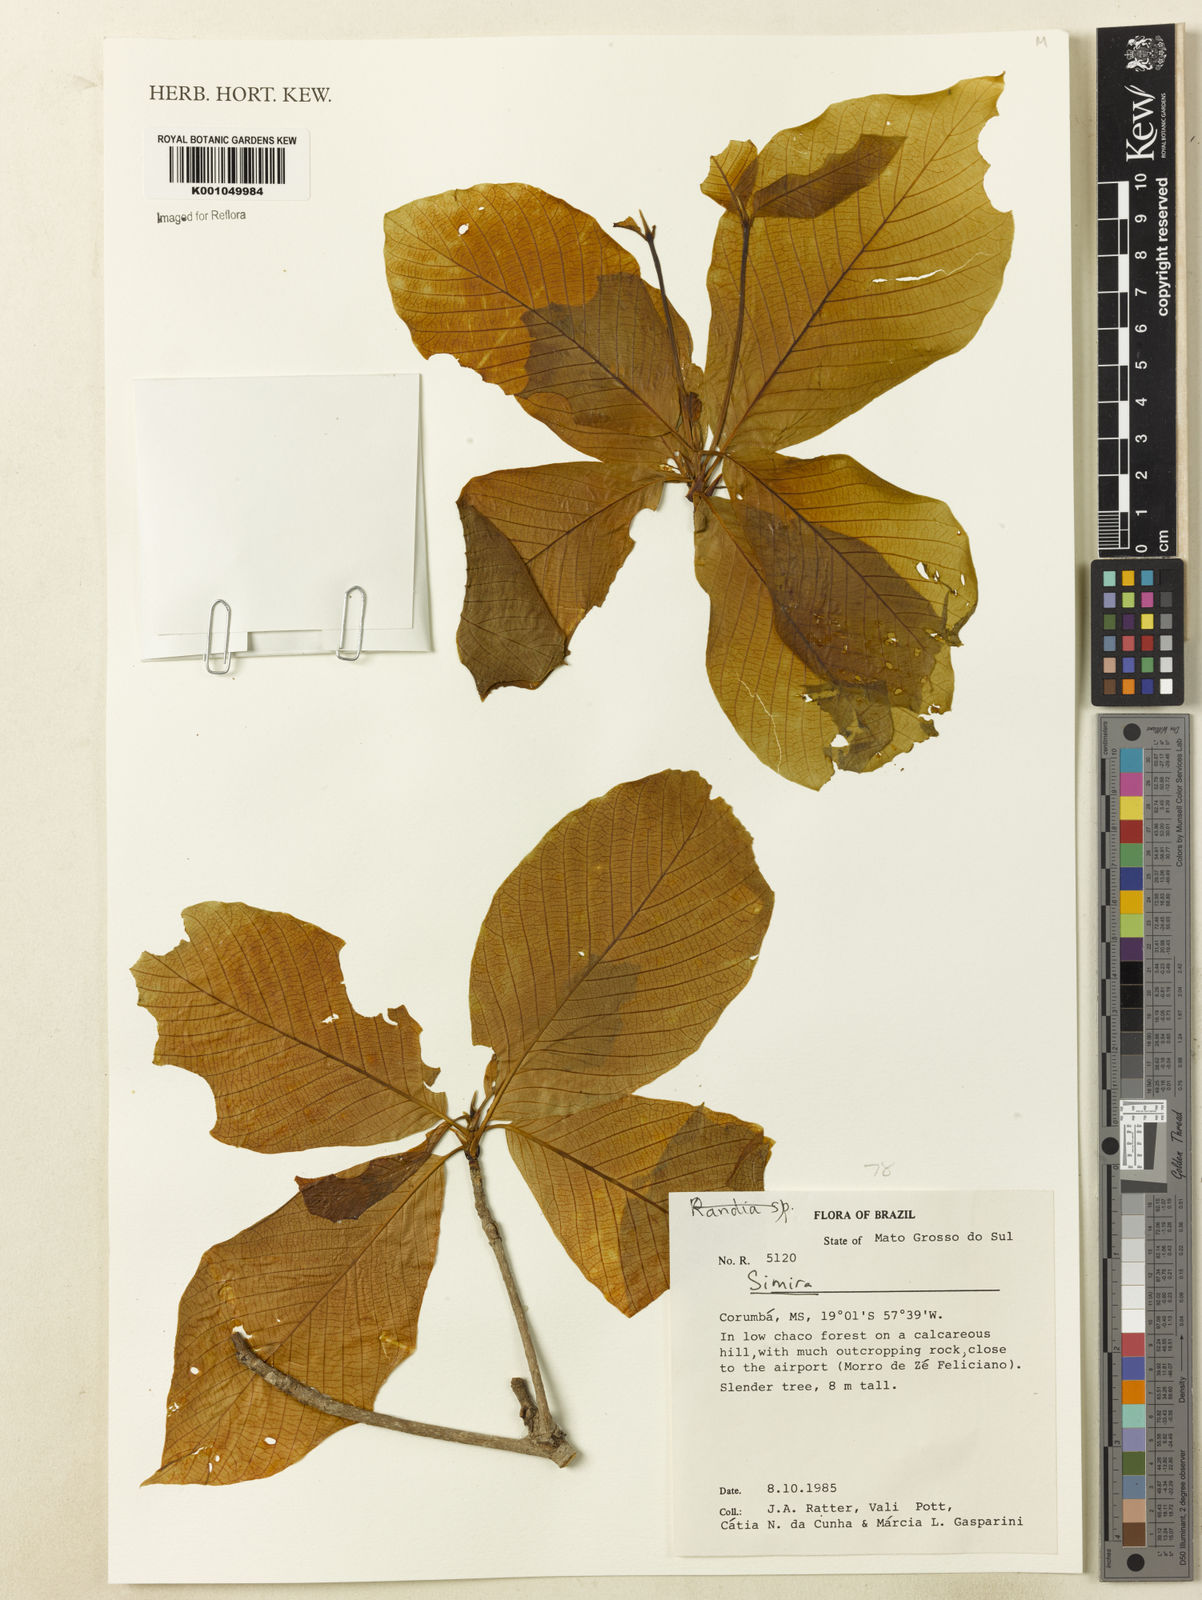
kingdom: Plantae
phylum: Tracheophyta
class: Magnoliopsida
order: Gentianales
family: Rubiaceae
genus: Simira
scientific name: Simira
